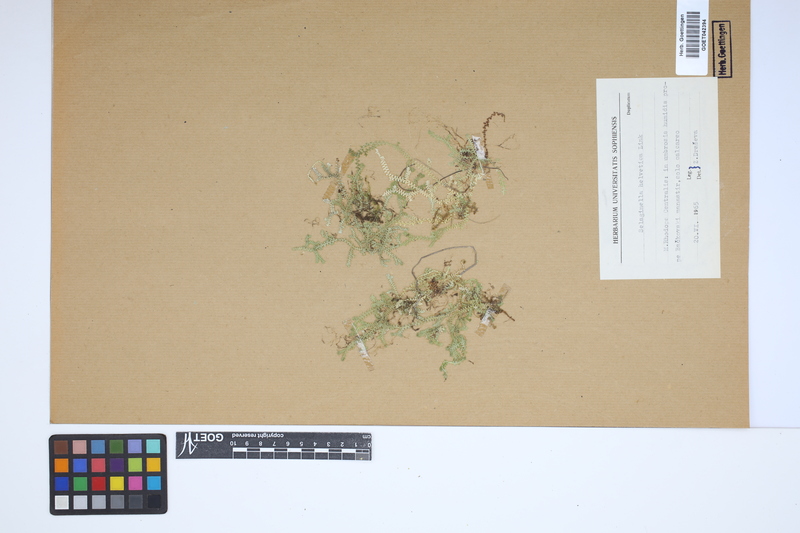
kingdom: Plantae
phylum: Tracheophyta
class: Lycopodiopsida
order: Selaginellales
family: Selaginellaceae
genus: Selaginella
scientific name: Selaginella helvetica
